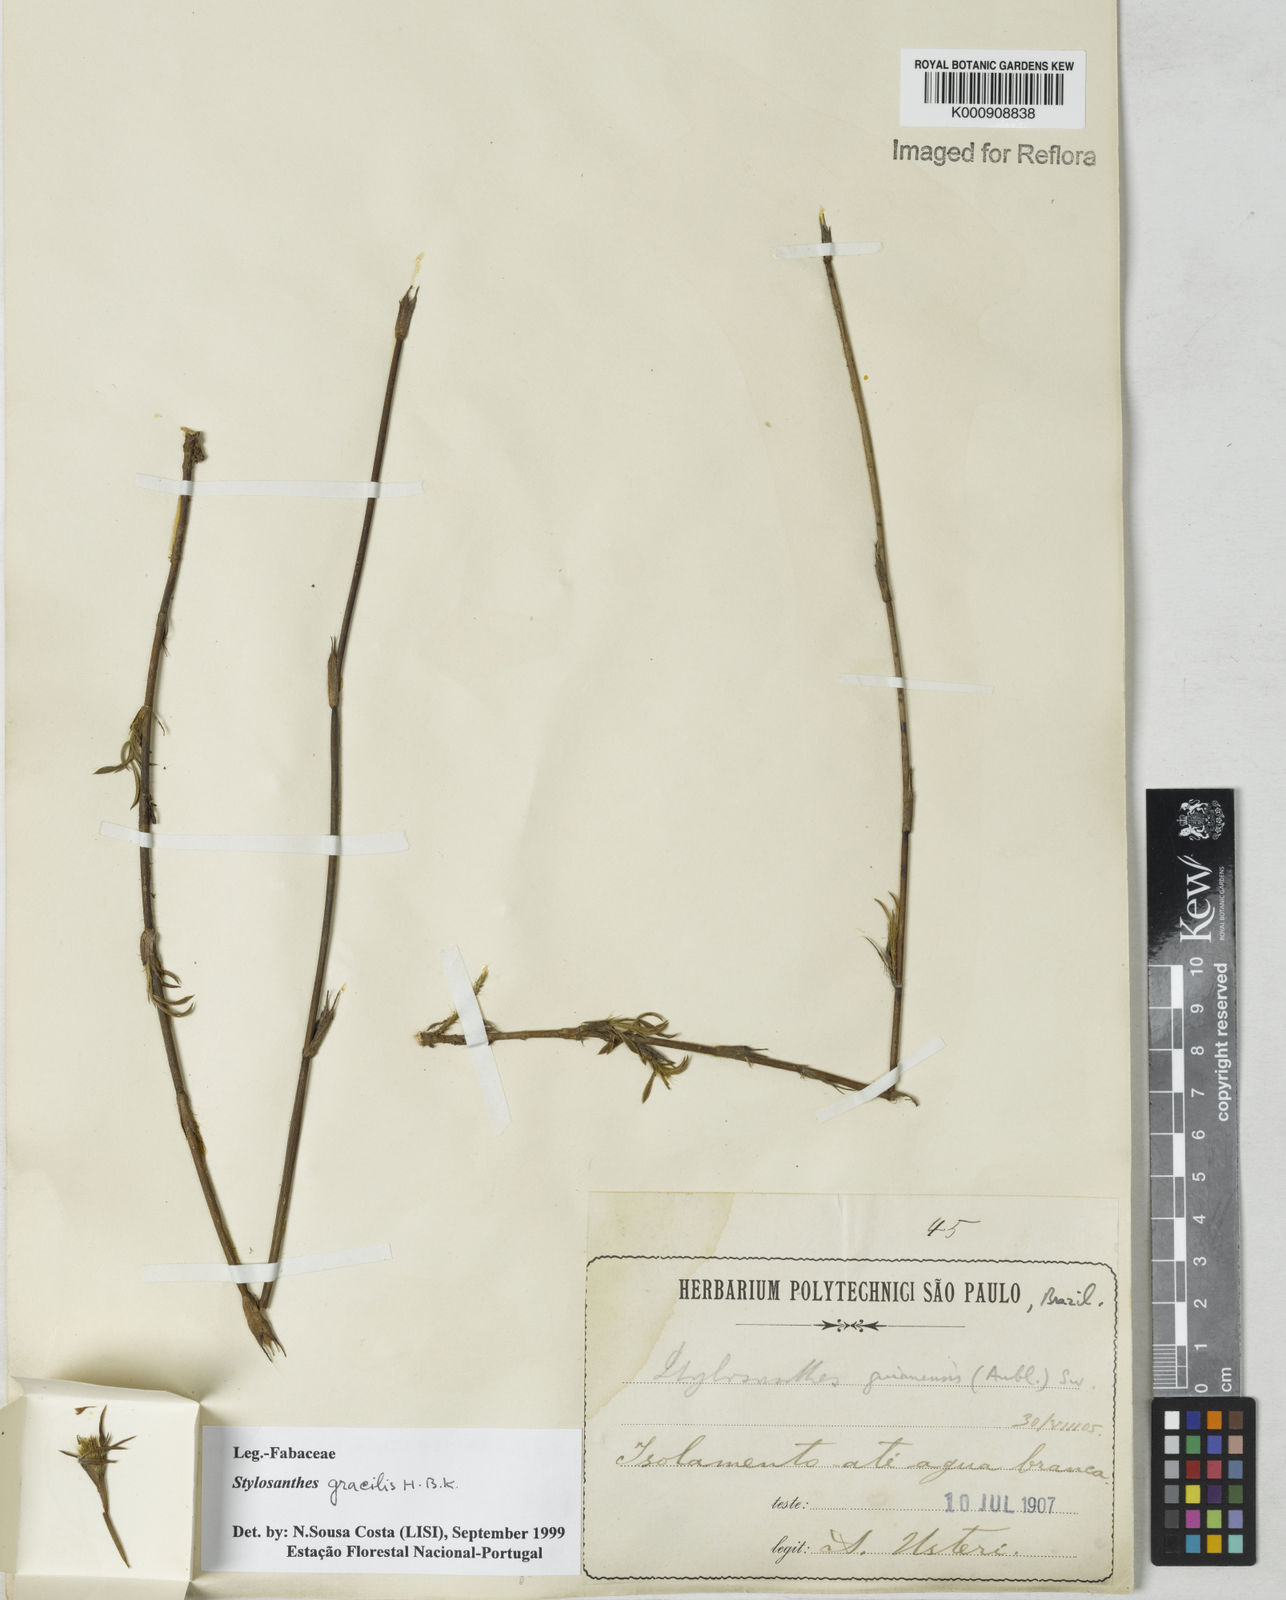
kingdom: Plantae
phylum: Tracheophyta
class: Magnoliopsida
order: Fabales
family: Fabaceae
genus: Stylosanthes
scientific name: Stylosanthes guianensis
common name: Pencil flower
